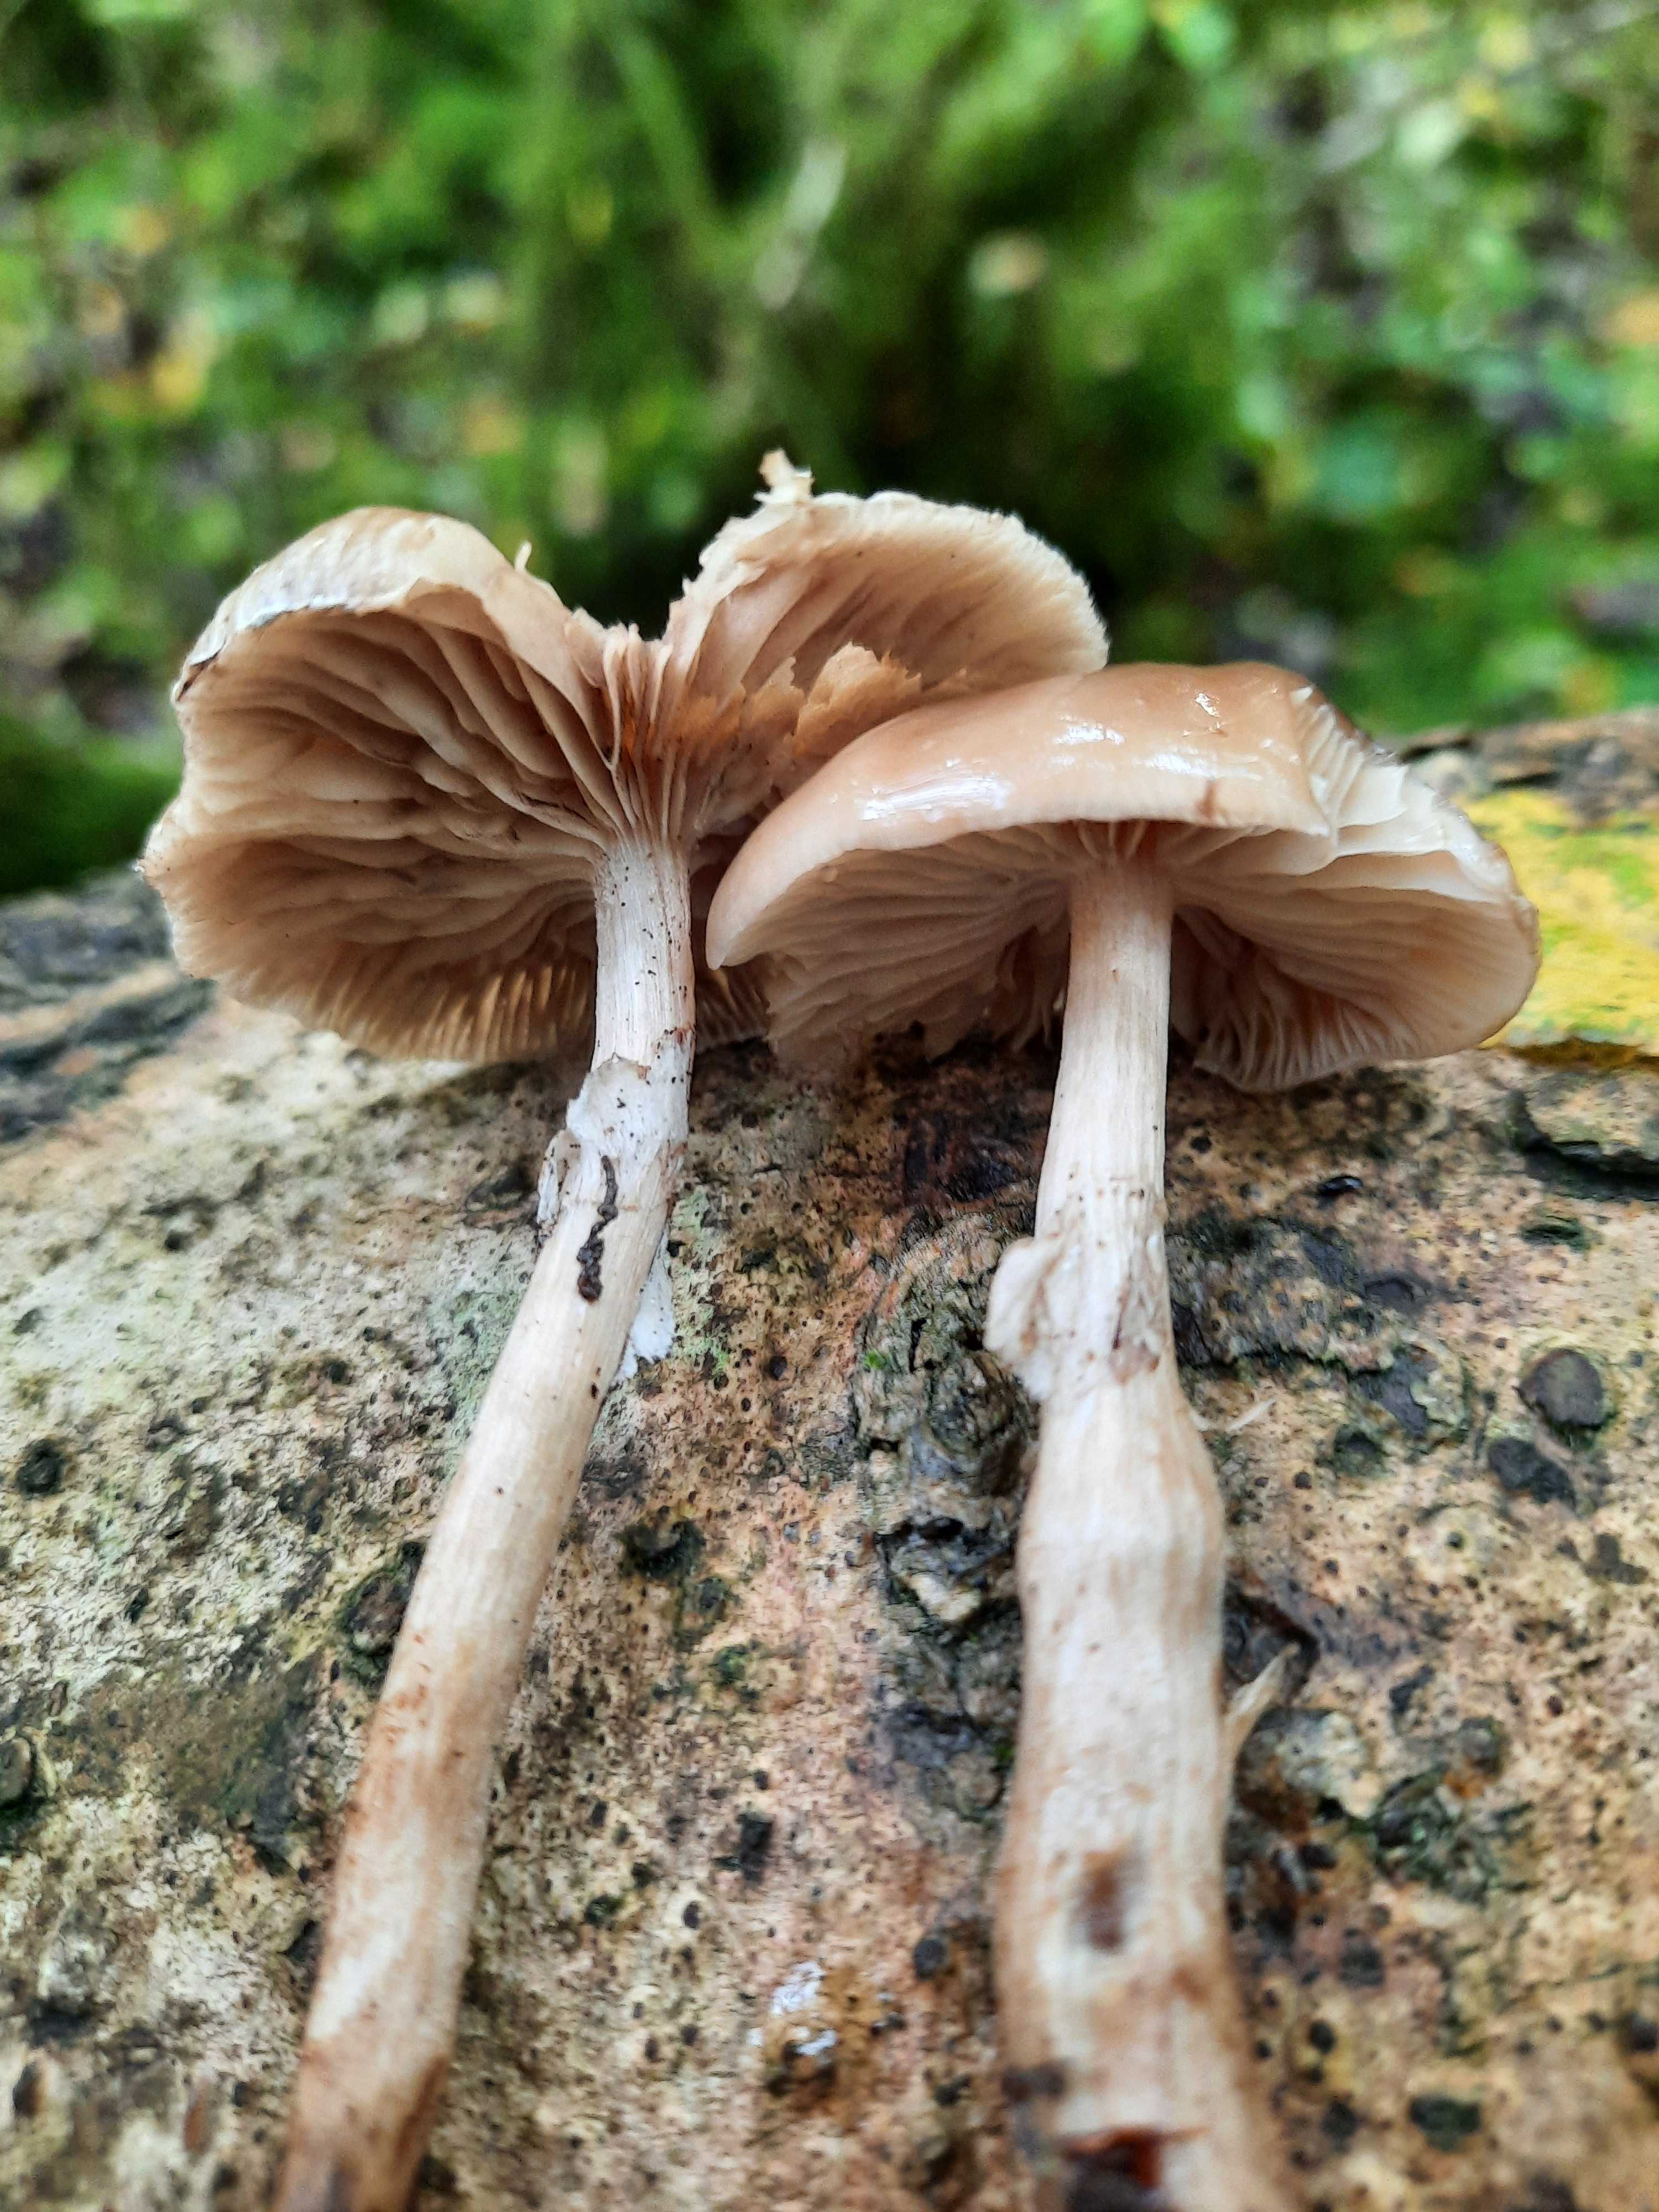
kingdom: Fungi
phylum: Basidiomycota
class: Agaricomycetes
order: Agaricales
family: Tubariaceae
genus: Cyclocybe
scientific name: Cyclocybe erebia
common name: mørk agerhat
